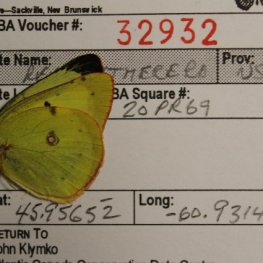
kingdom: Animalia
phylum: Arthropoda
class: Insecta
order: Lepidoptera
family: Pieridae
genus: Colias
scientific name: Colias philodice
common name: Clouded Sulphur
